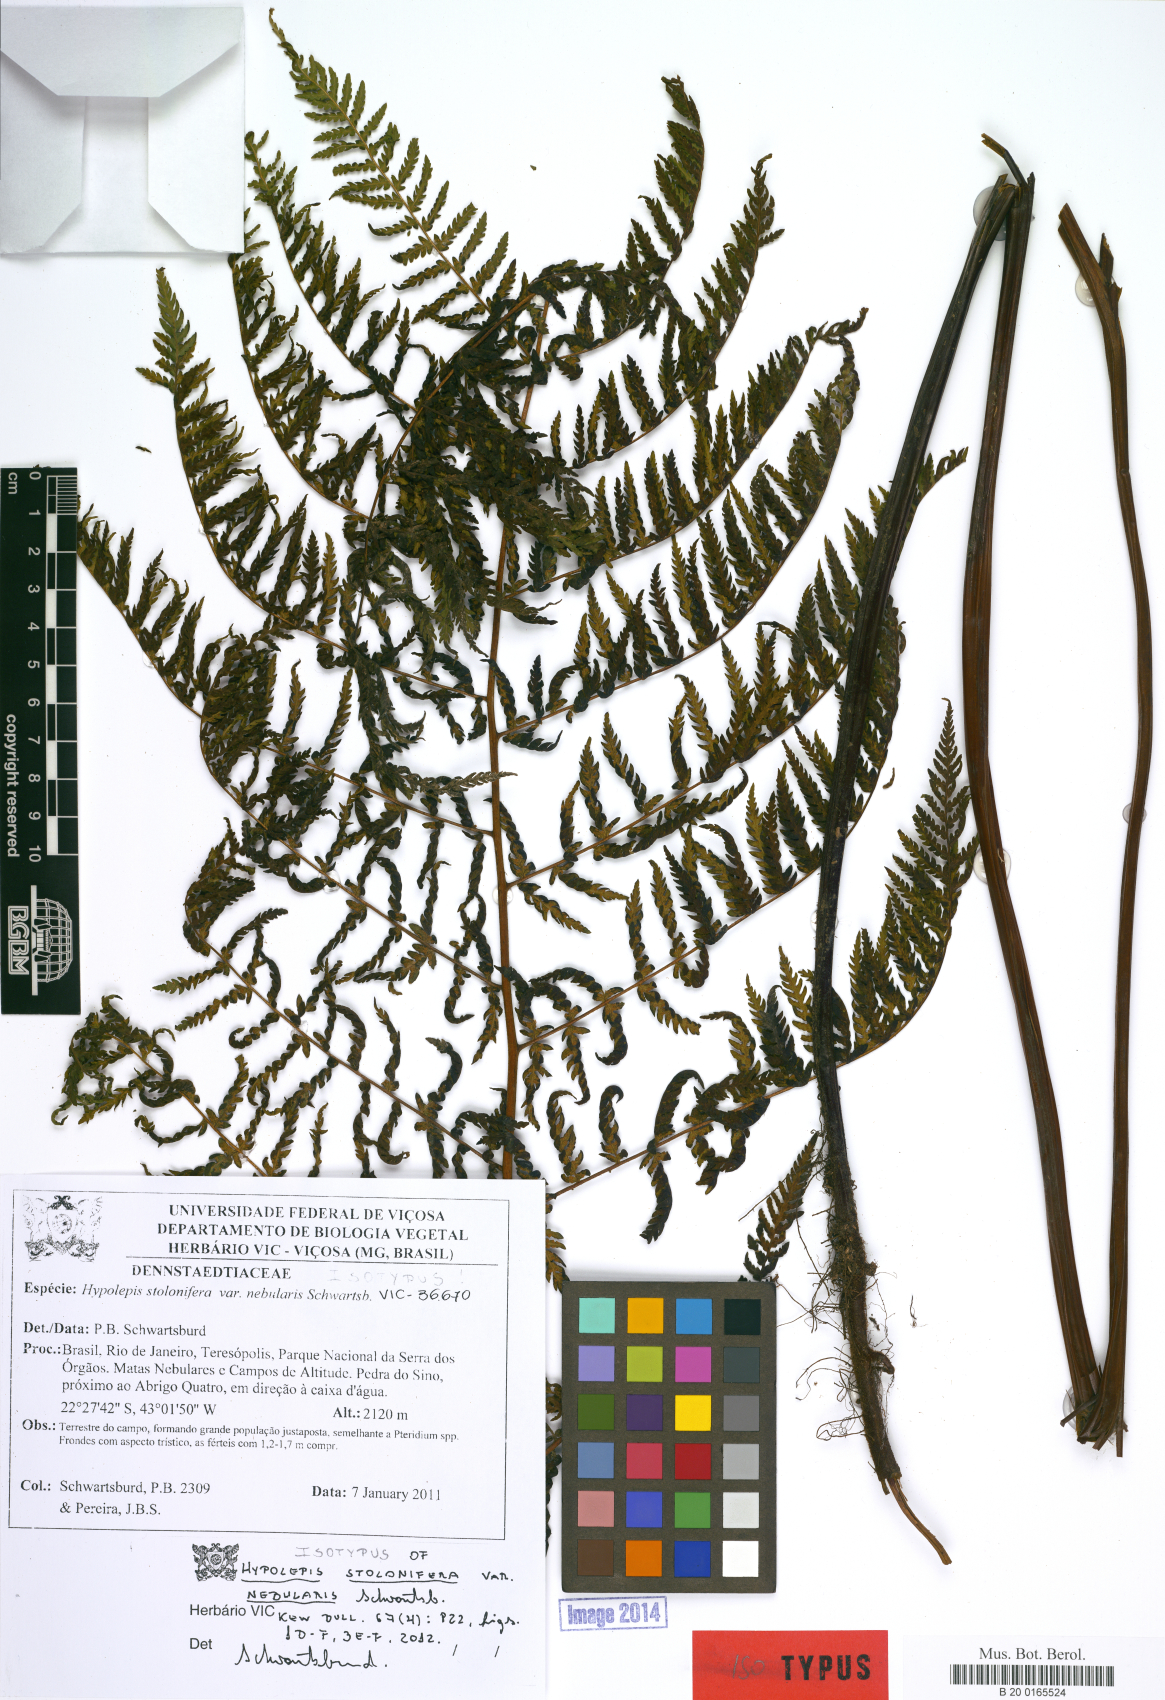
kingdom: Plantae
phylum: Tracheophyta
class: Polypodiopsida
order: Polypodiales
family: Dennstaedtiaceae
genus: Hypolepis
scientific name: Hypolepis stolonifera
